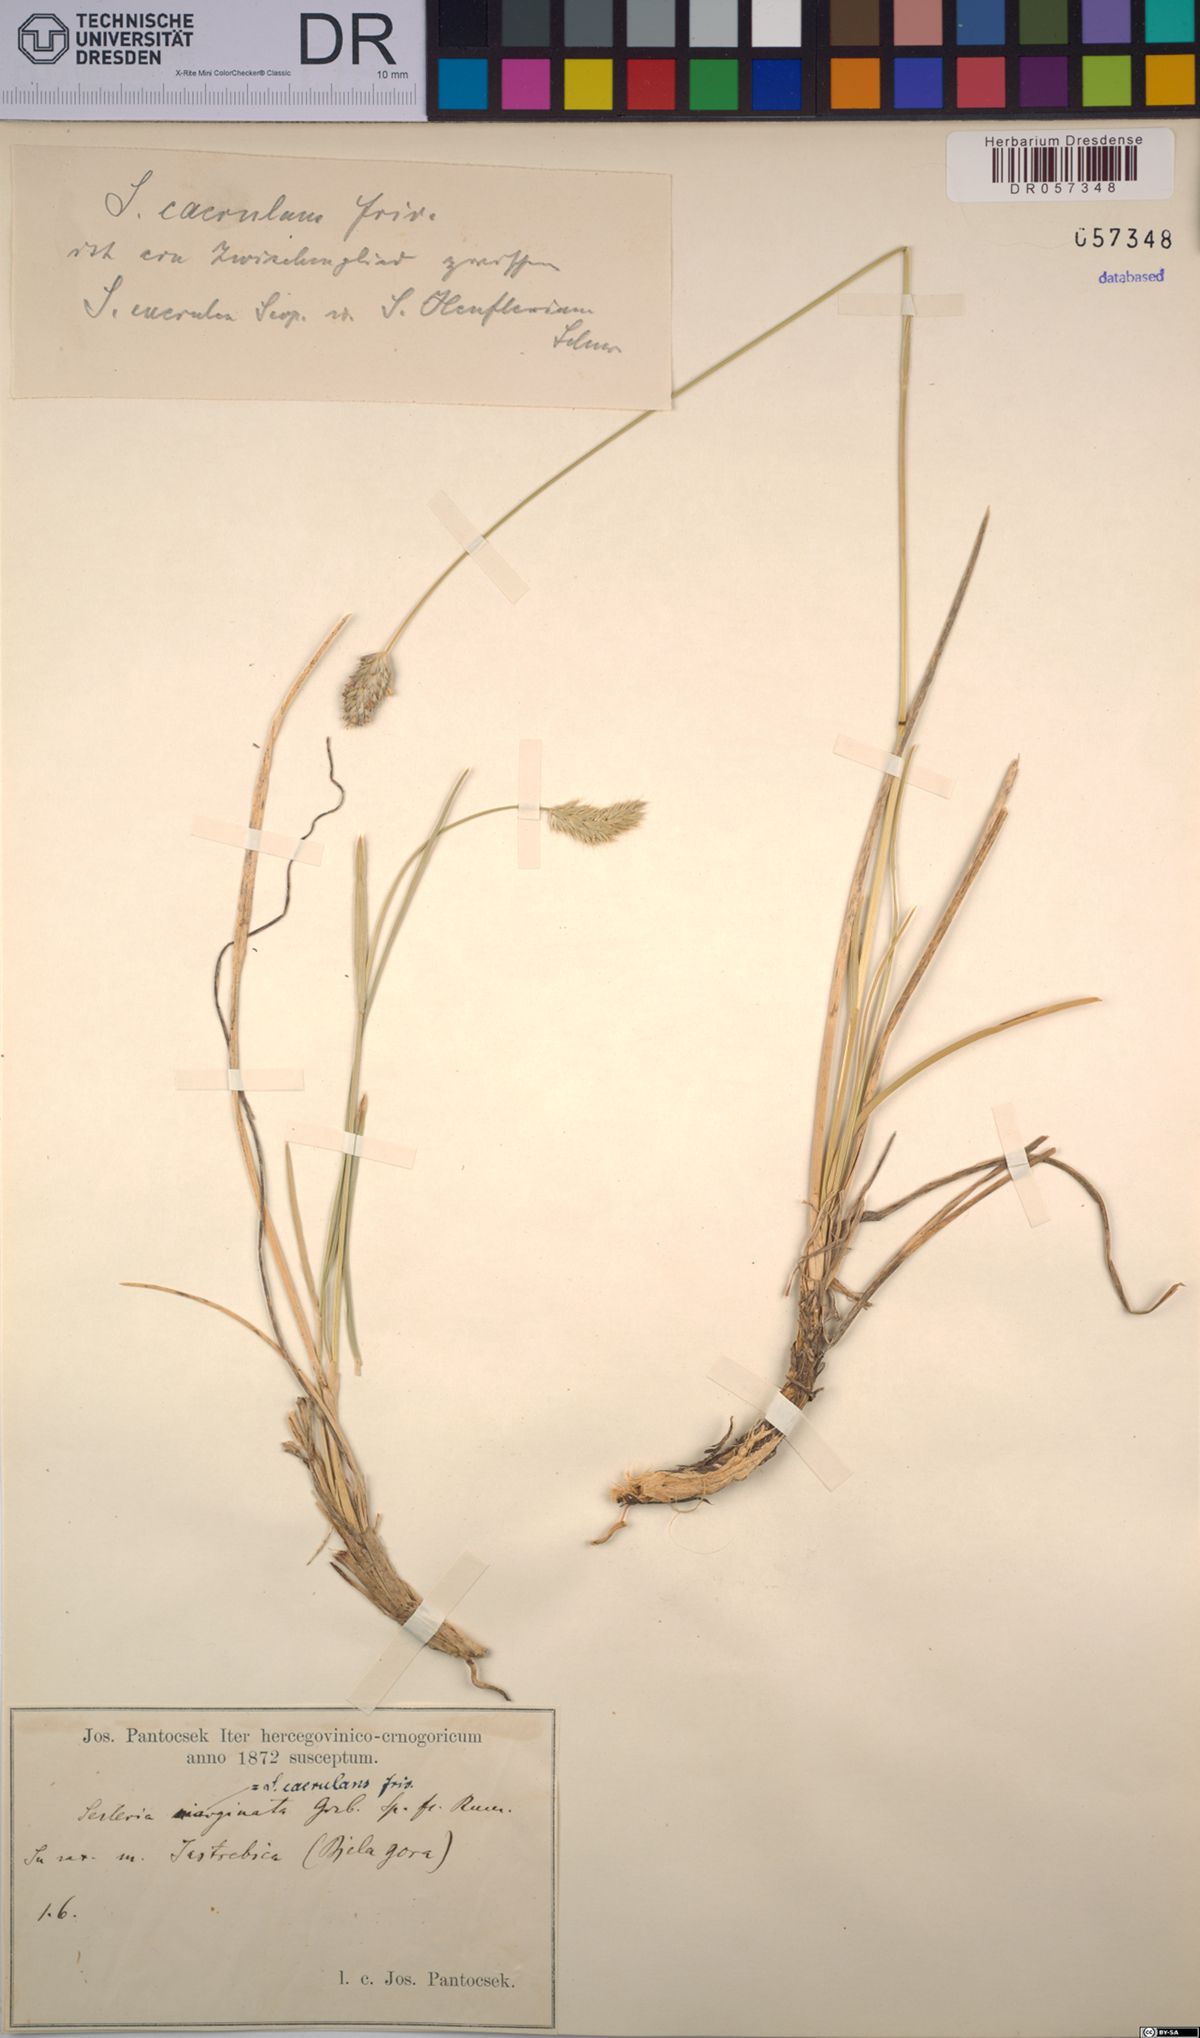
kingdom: Plantae
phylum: Tracheophyta
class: Liliopsida
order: Poales
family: Poaceae
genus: Sesleria
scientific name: Sesleria coerulans
